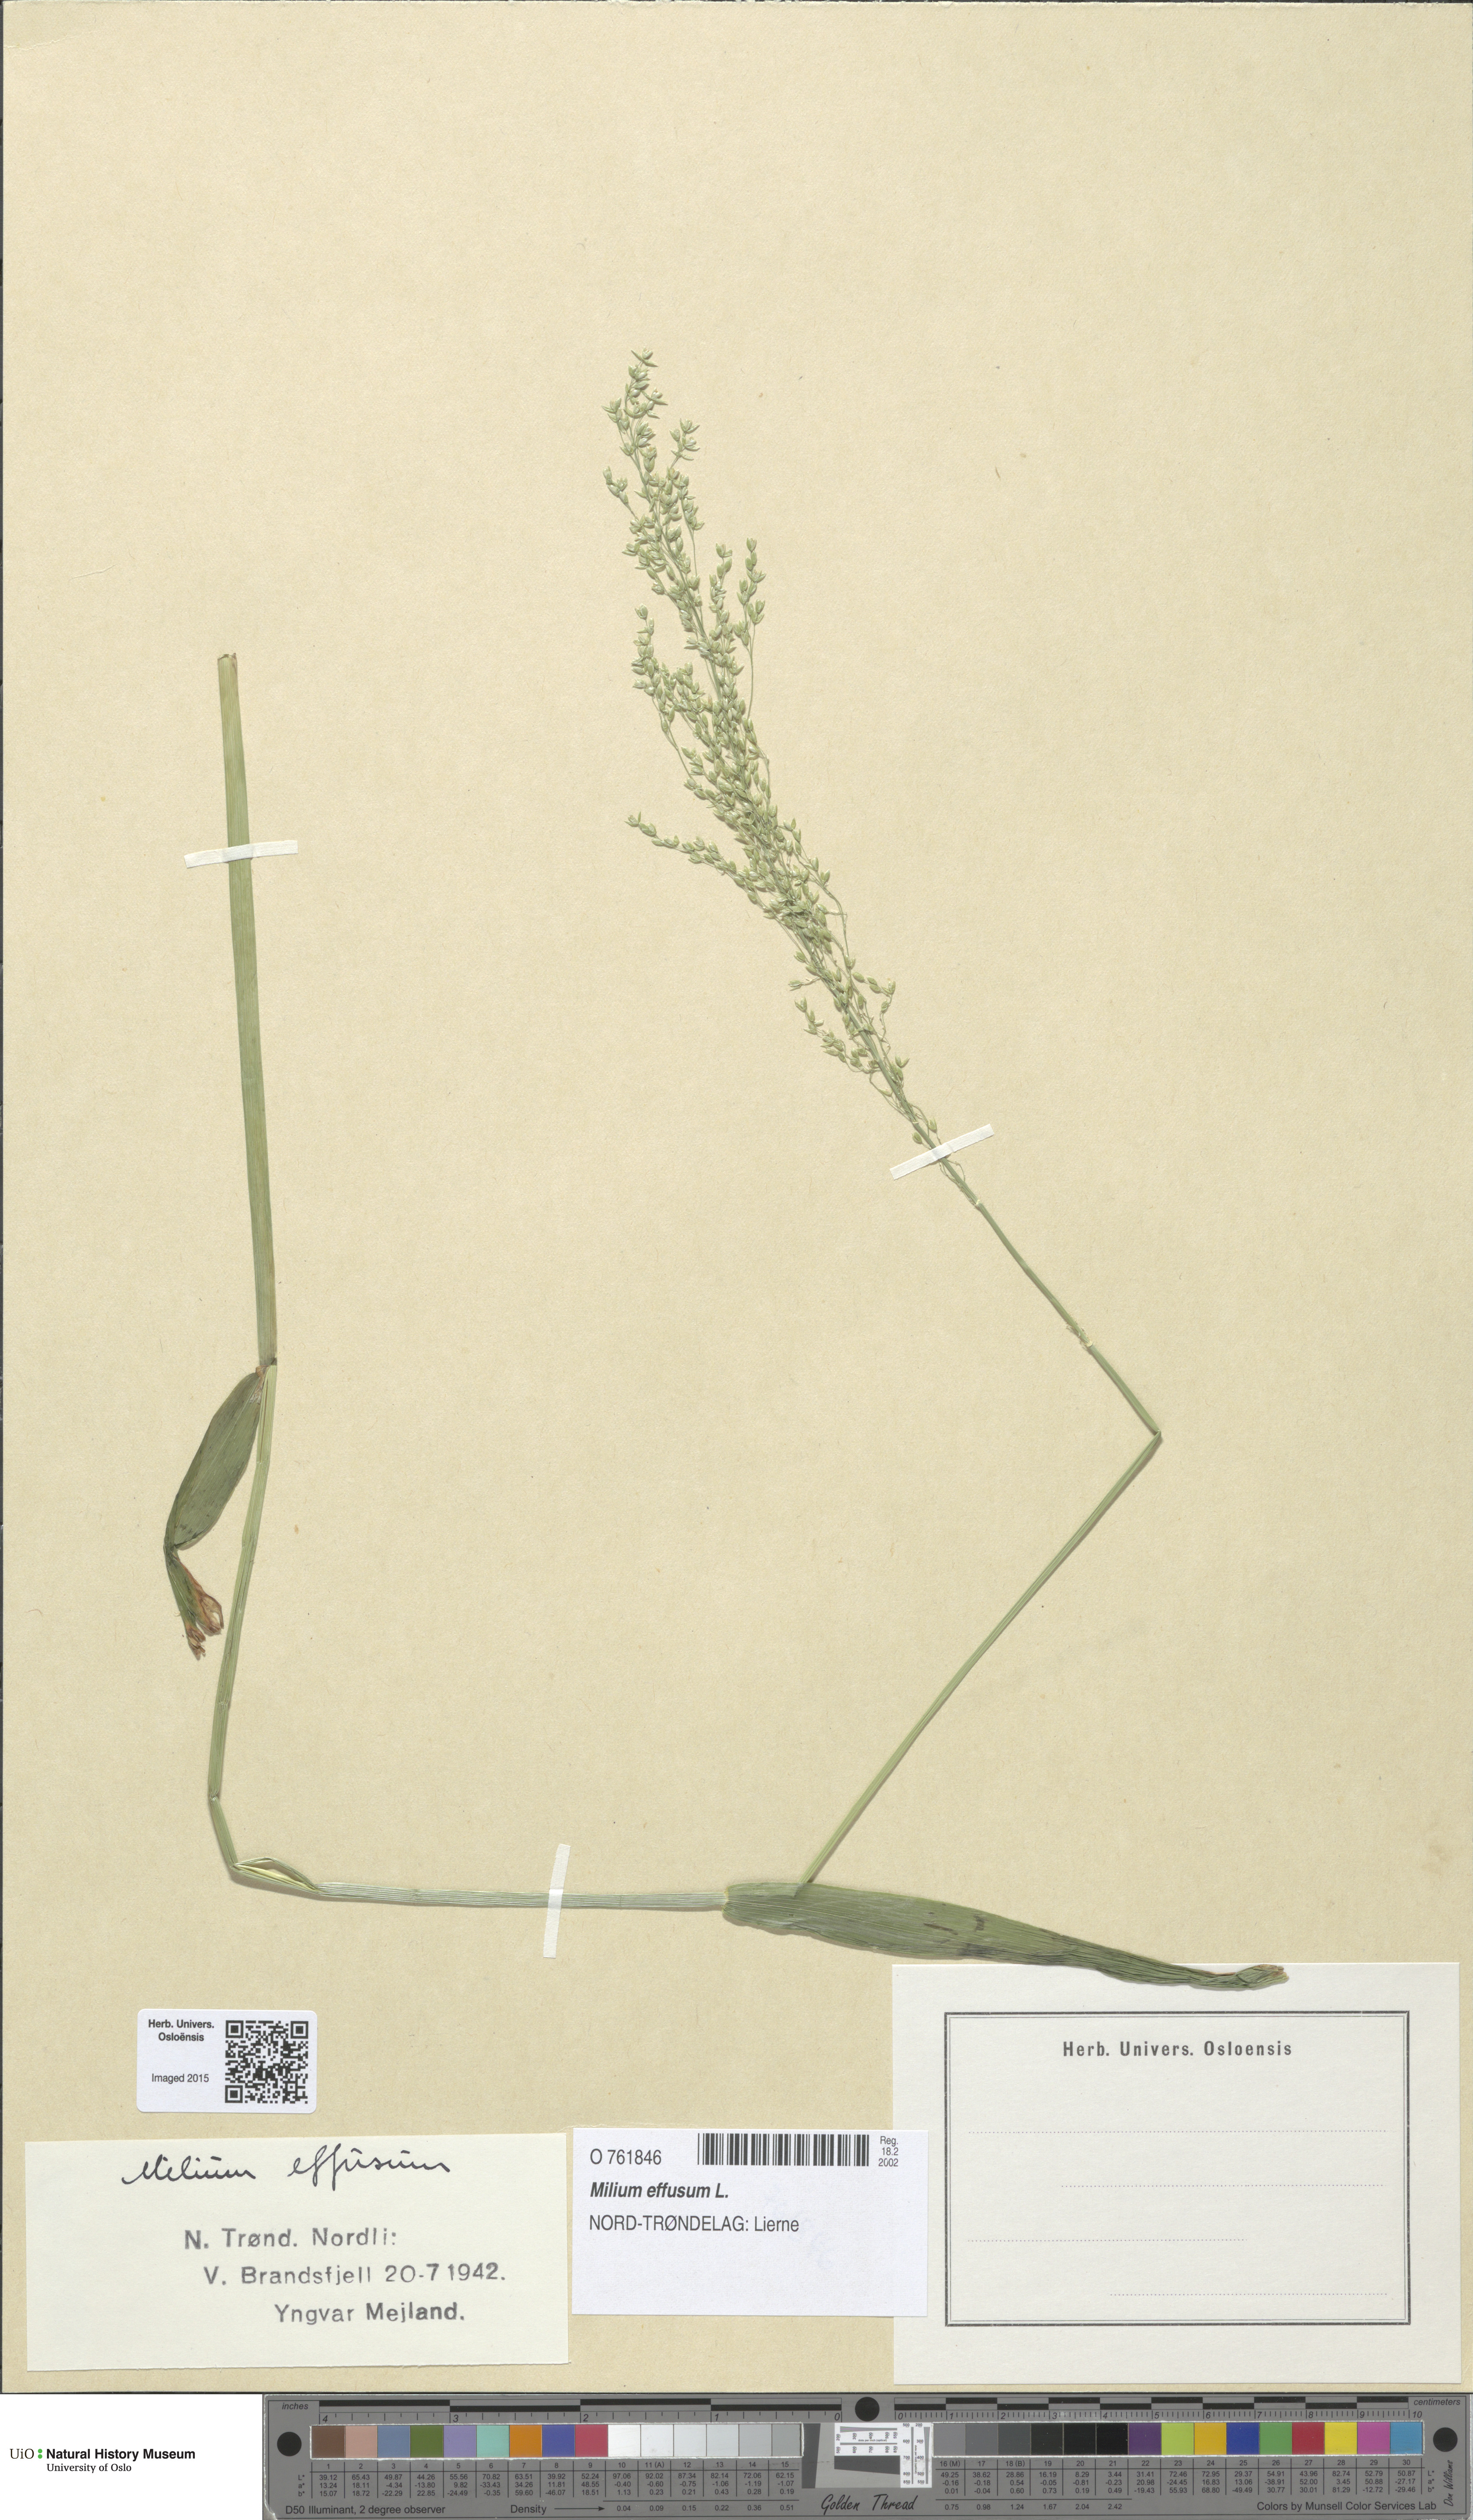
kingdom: Plantae
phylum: Tracheophyta
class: Liliopsida
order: Poales
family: Poaceae
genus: Milium
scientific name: Milium effusum
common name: Wood millet
